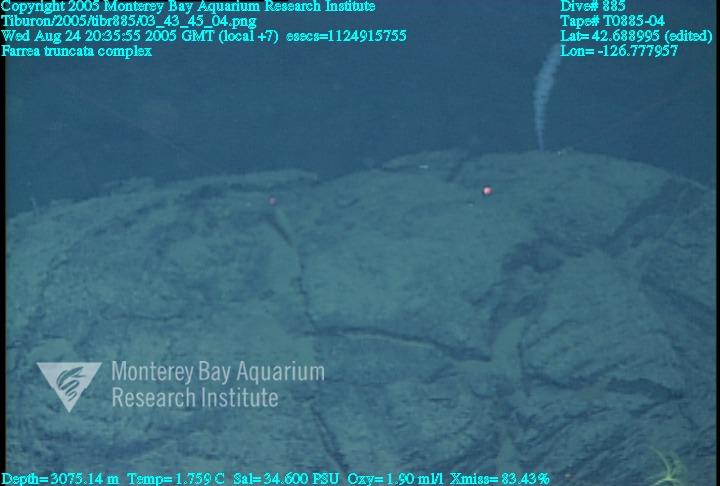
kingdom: Animalia
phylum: Porifera
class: Hexactinellida
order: Sceptrulophora
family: Farreidae
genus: Farrea
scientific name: Farrea truncata
